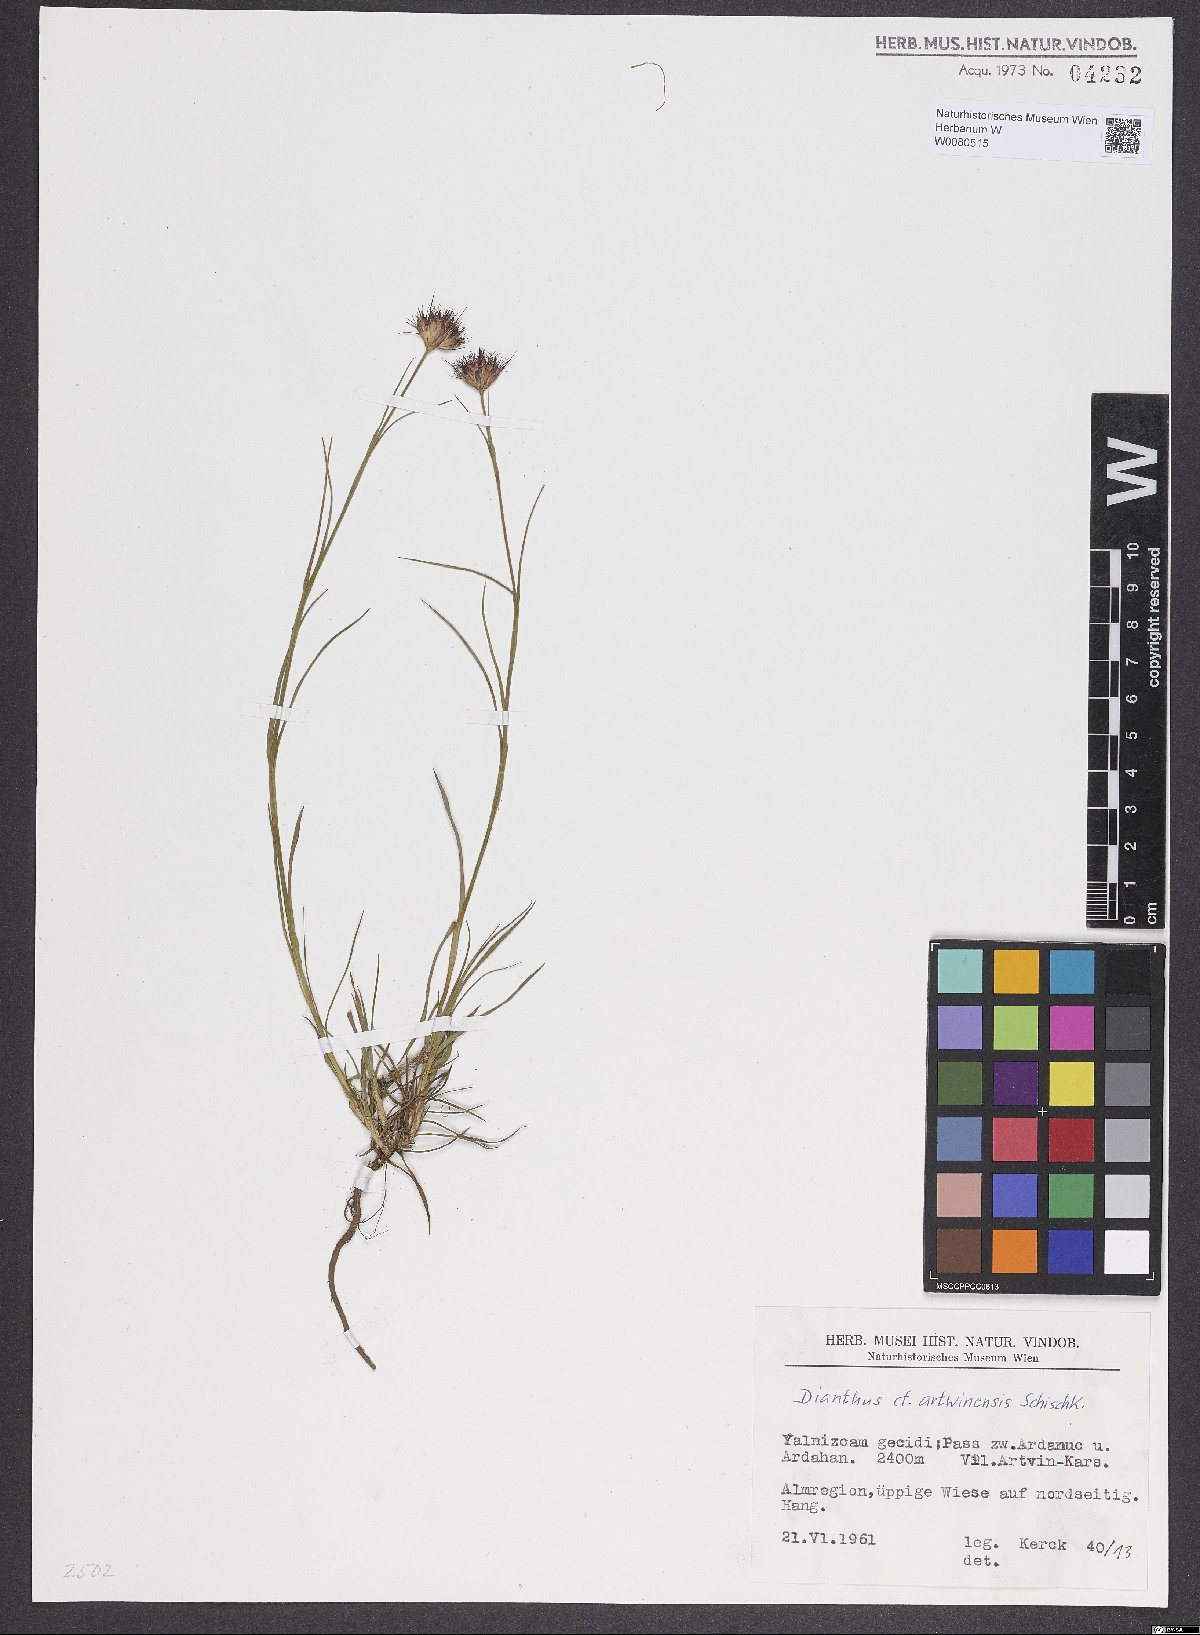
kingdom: Plantae
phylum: Tracheophyta
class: Magnoliopsida
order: Caryophyllales
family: Caryophyllaceae
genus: Dianthus
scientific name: Dianthus carmelitarum
